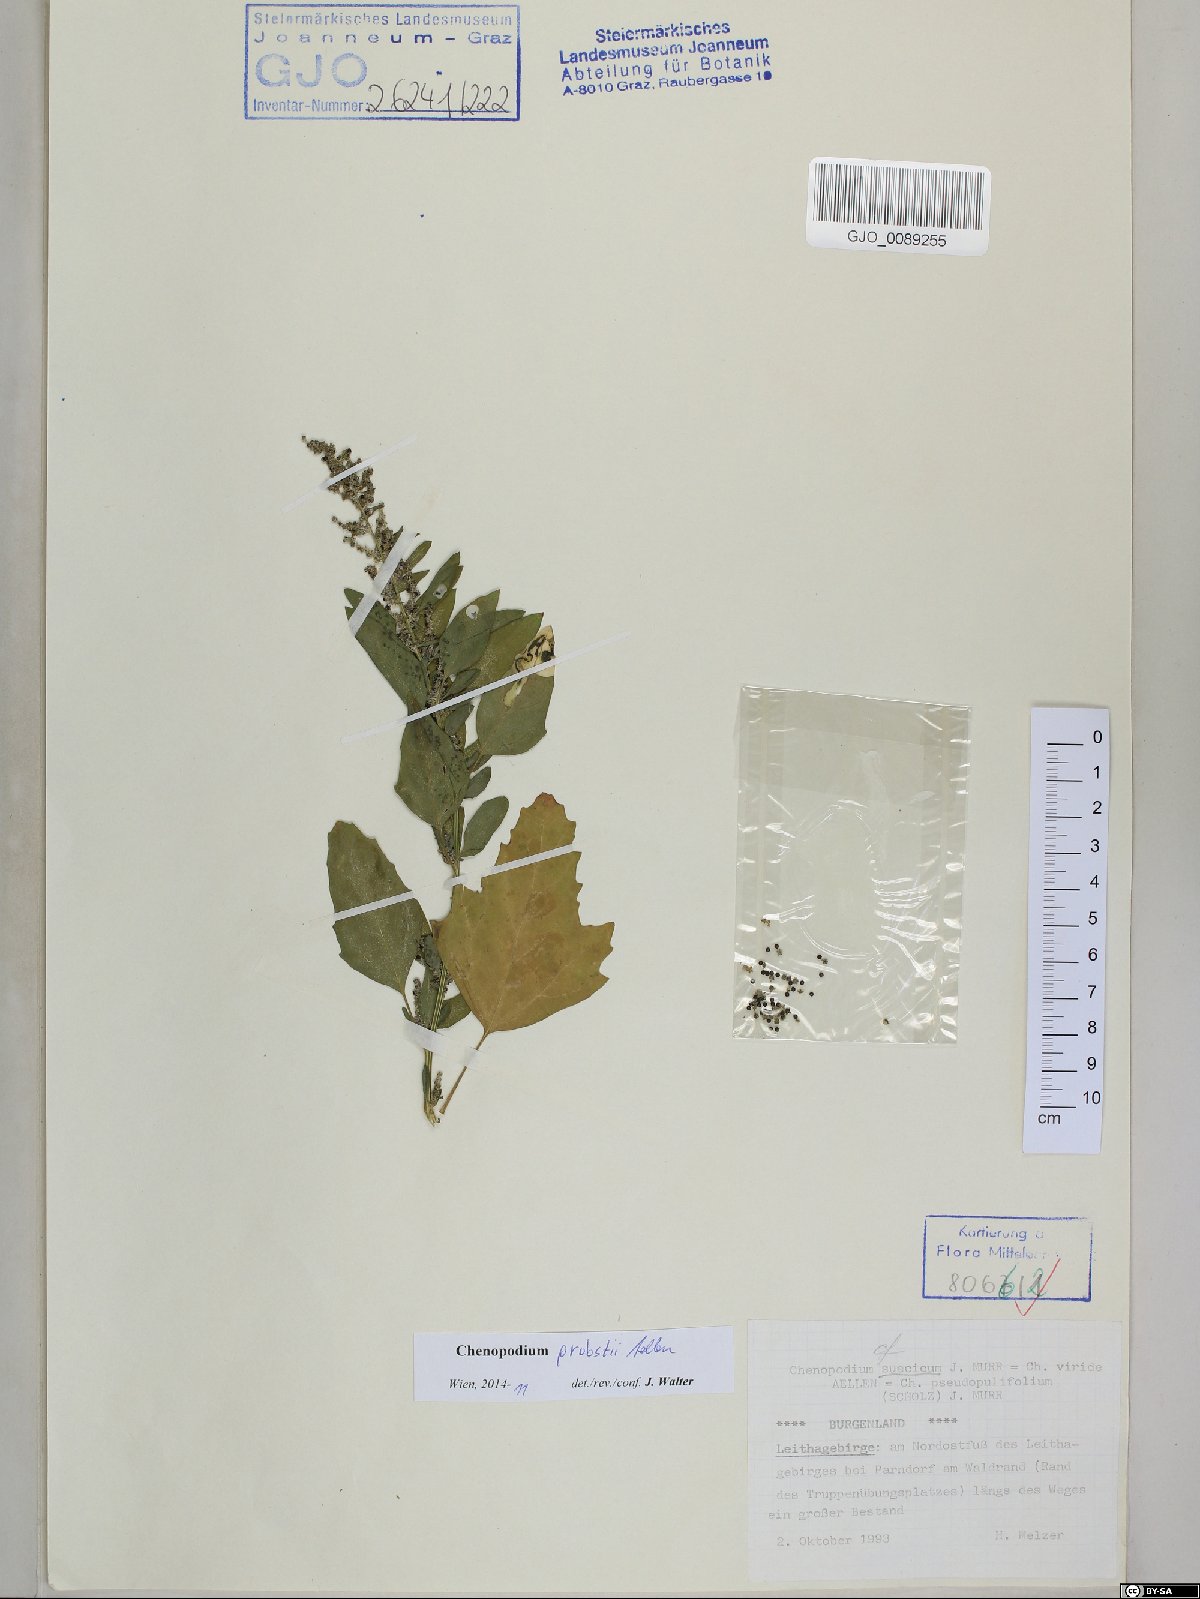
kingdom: Plantae
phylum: Tracheophyta
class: Magnoliopsida
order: Caryophyllales
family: Amaranthaceae
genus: Chenopodium
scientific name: Chenopodium probstii
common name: Probst's goosefoot
